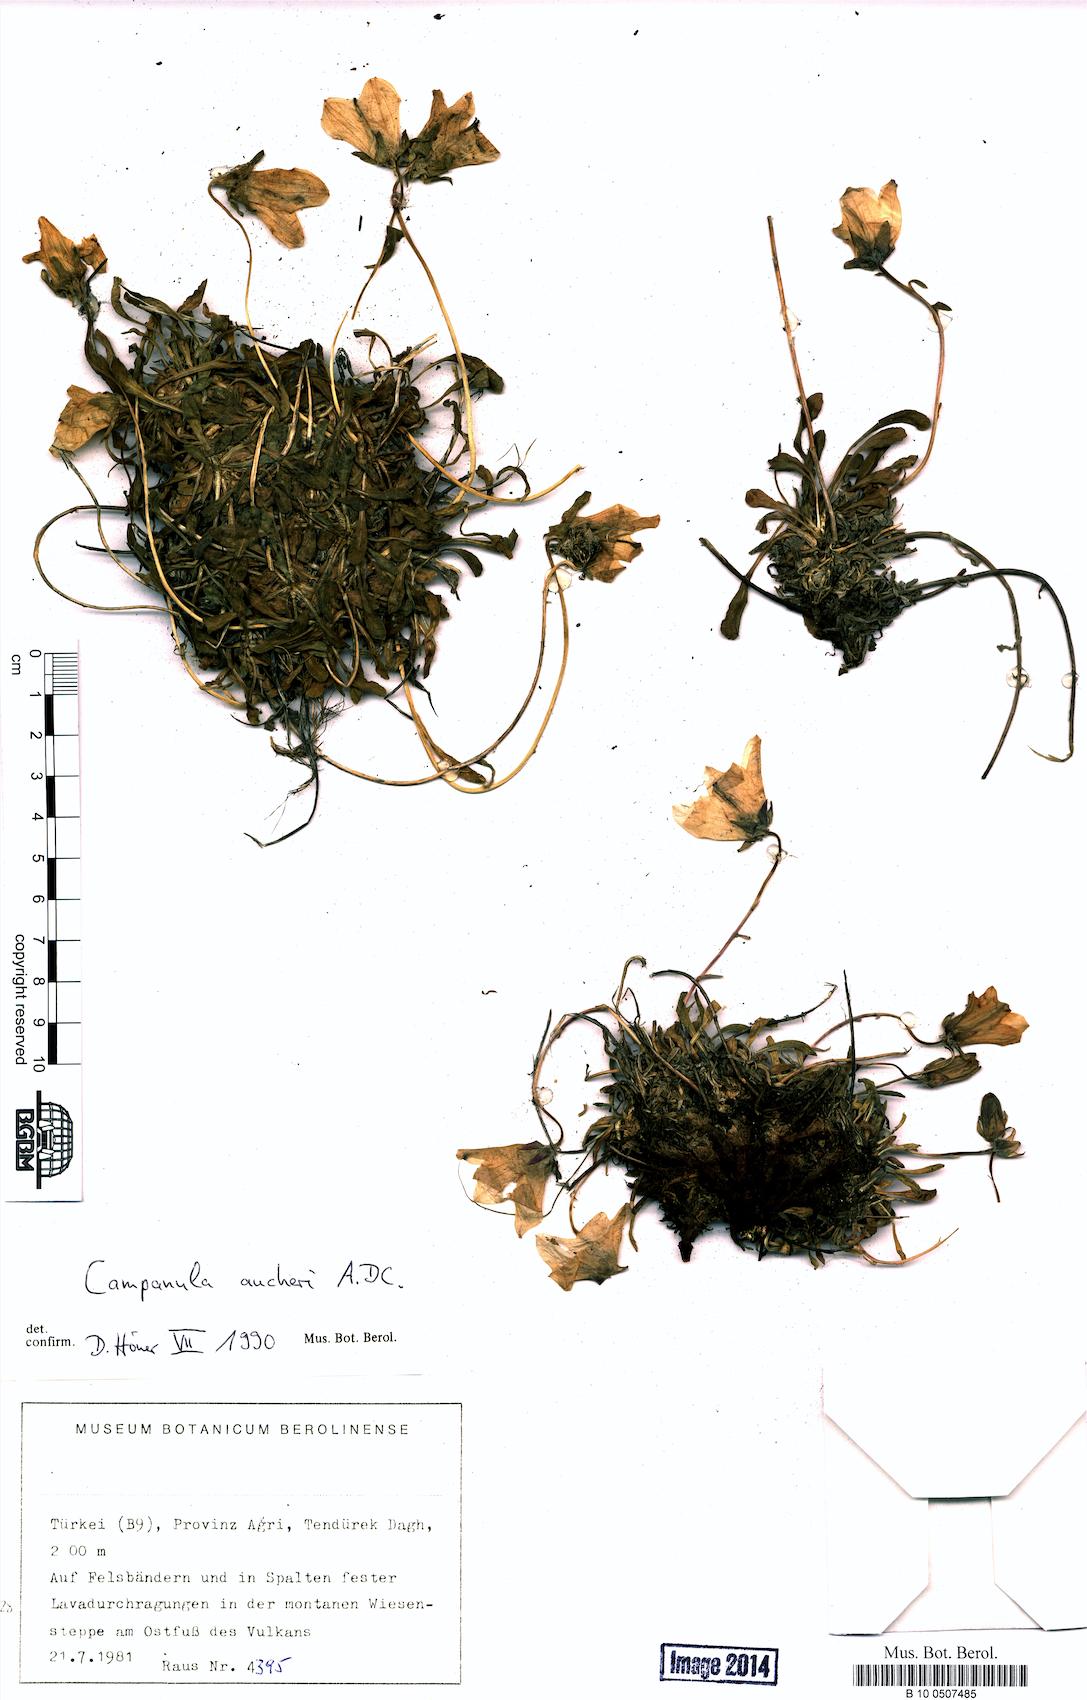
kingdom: Plantae
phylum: Tracheophyta
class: Magnoliopsida
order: Asterales
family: Campanulaceae
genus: Campanula
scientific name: Campanula saxifraga
